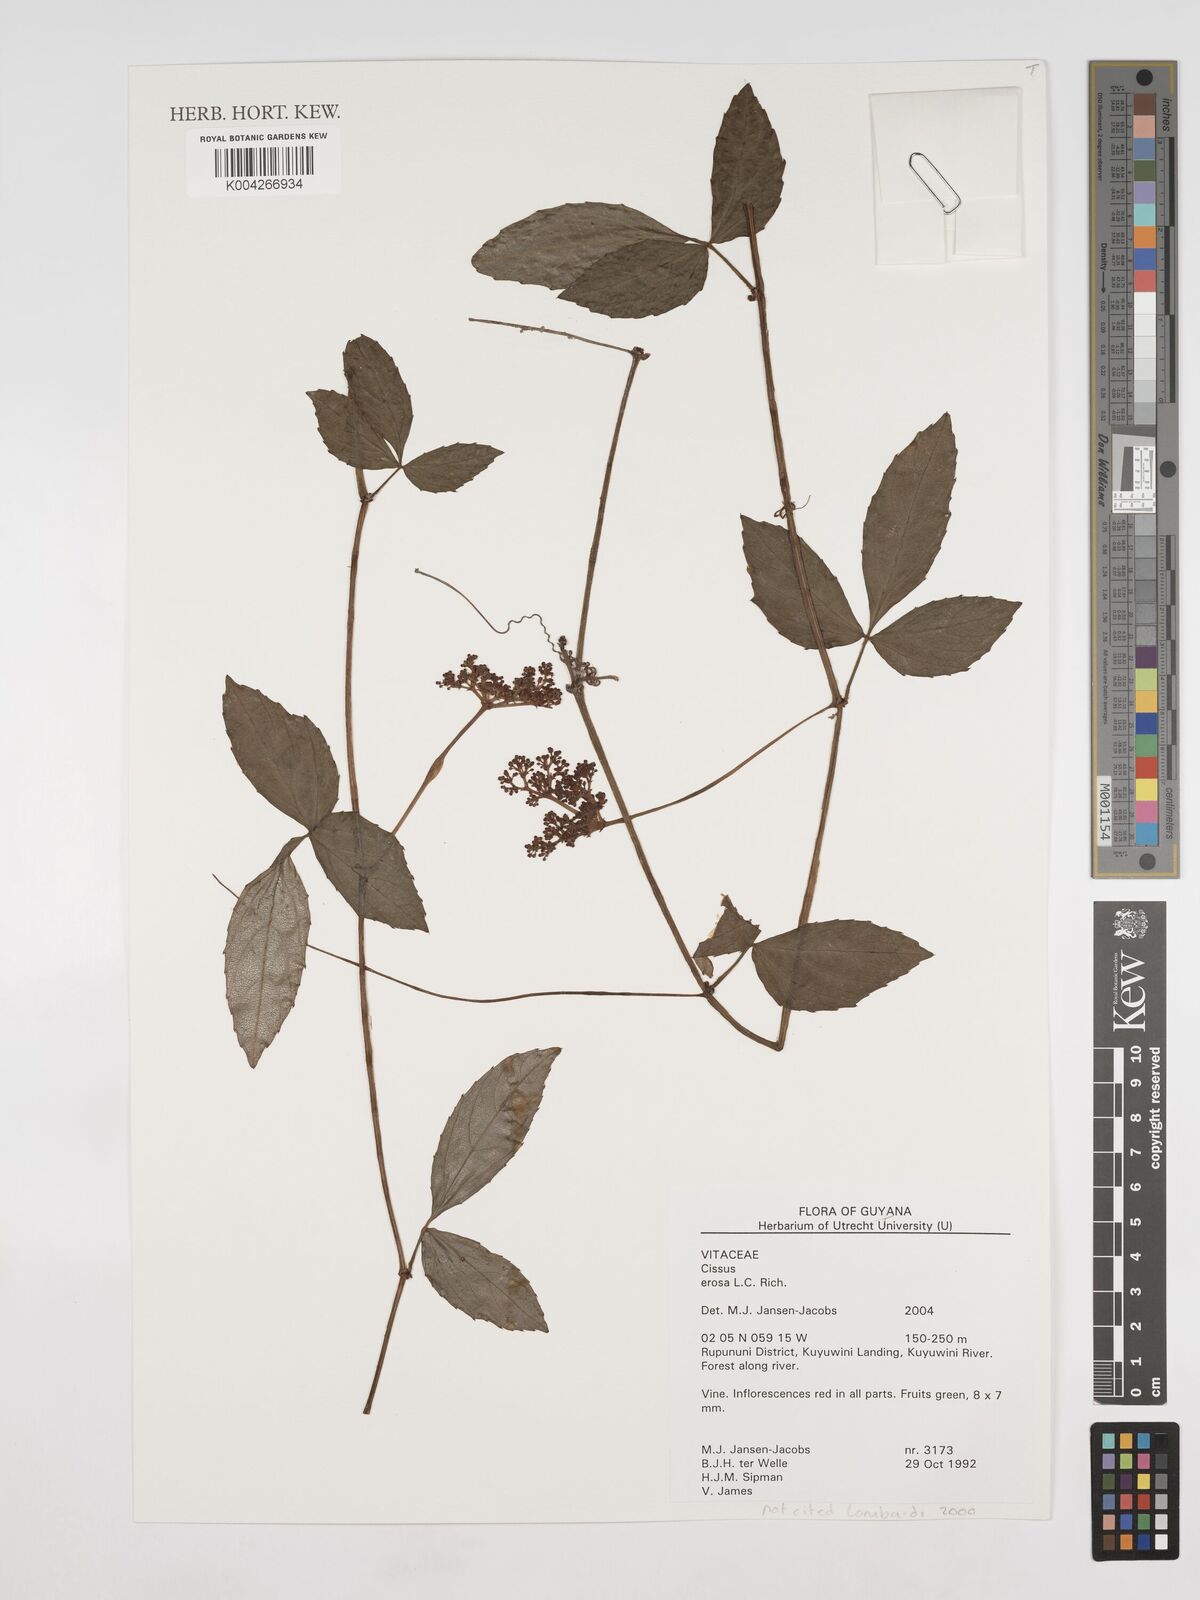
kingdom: Plantae
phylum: Tracheophyta
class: Magnoliopsida
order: Vitales
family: Vitaceae
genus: Cissus
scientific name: Cissus erosa
